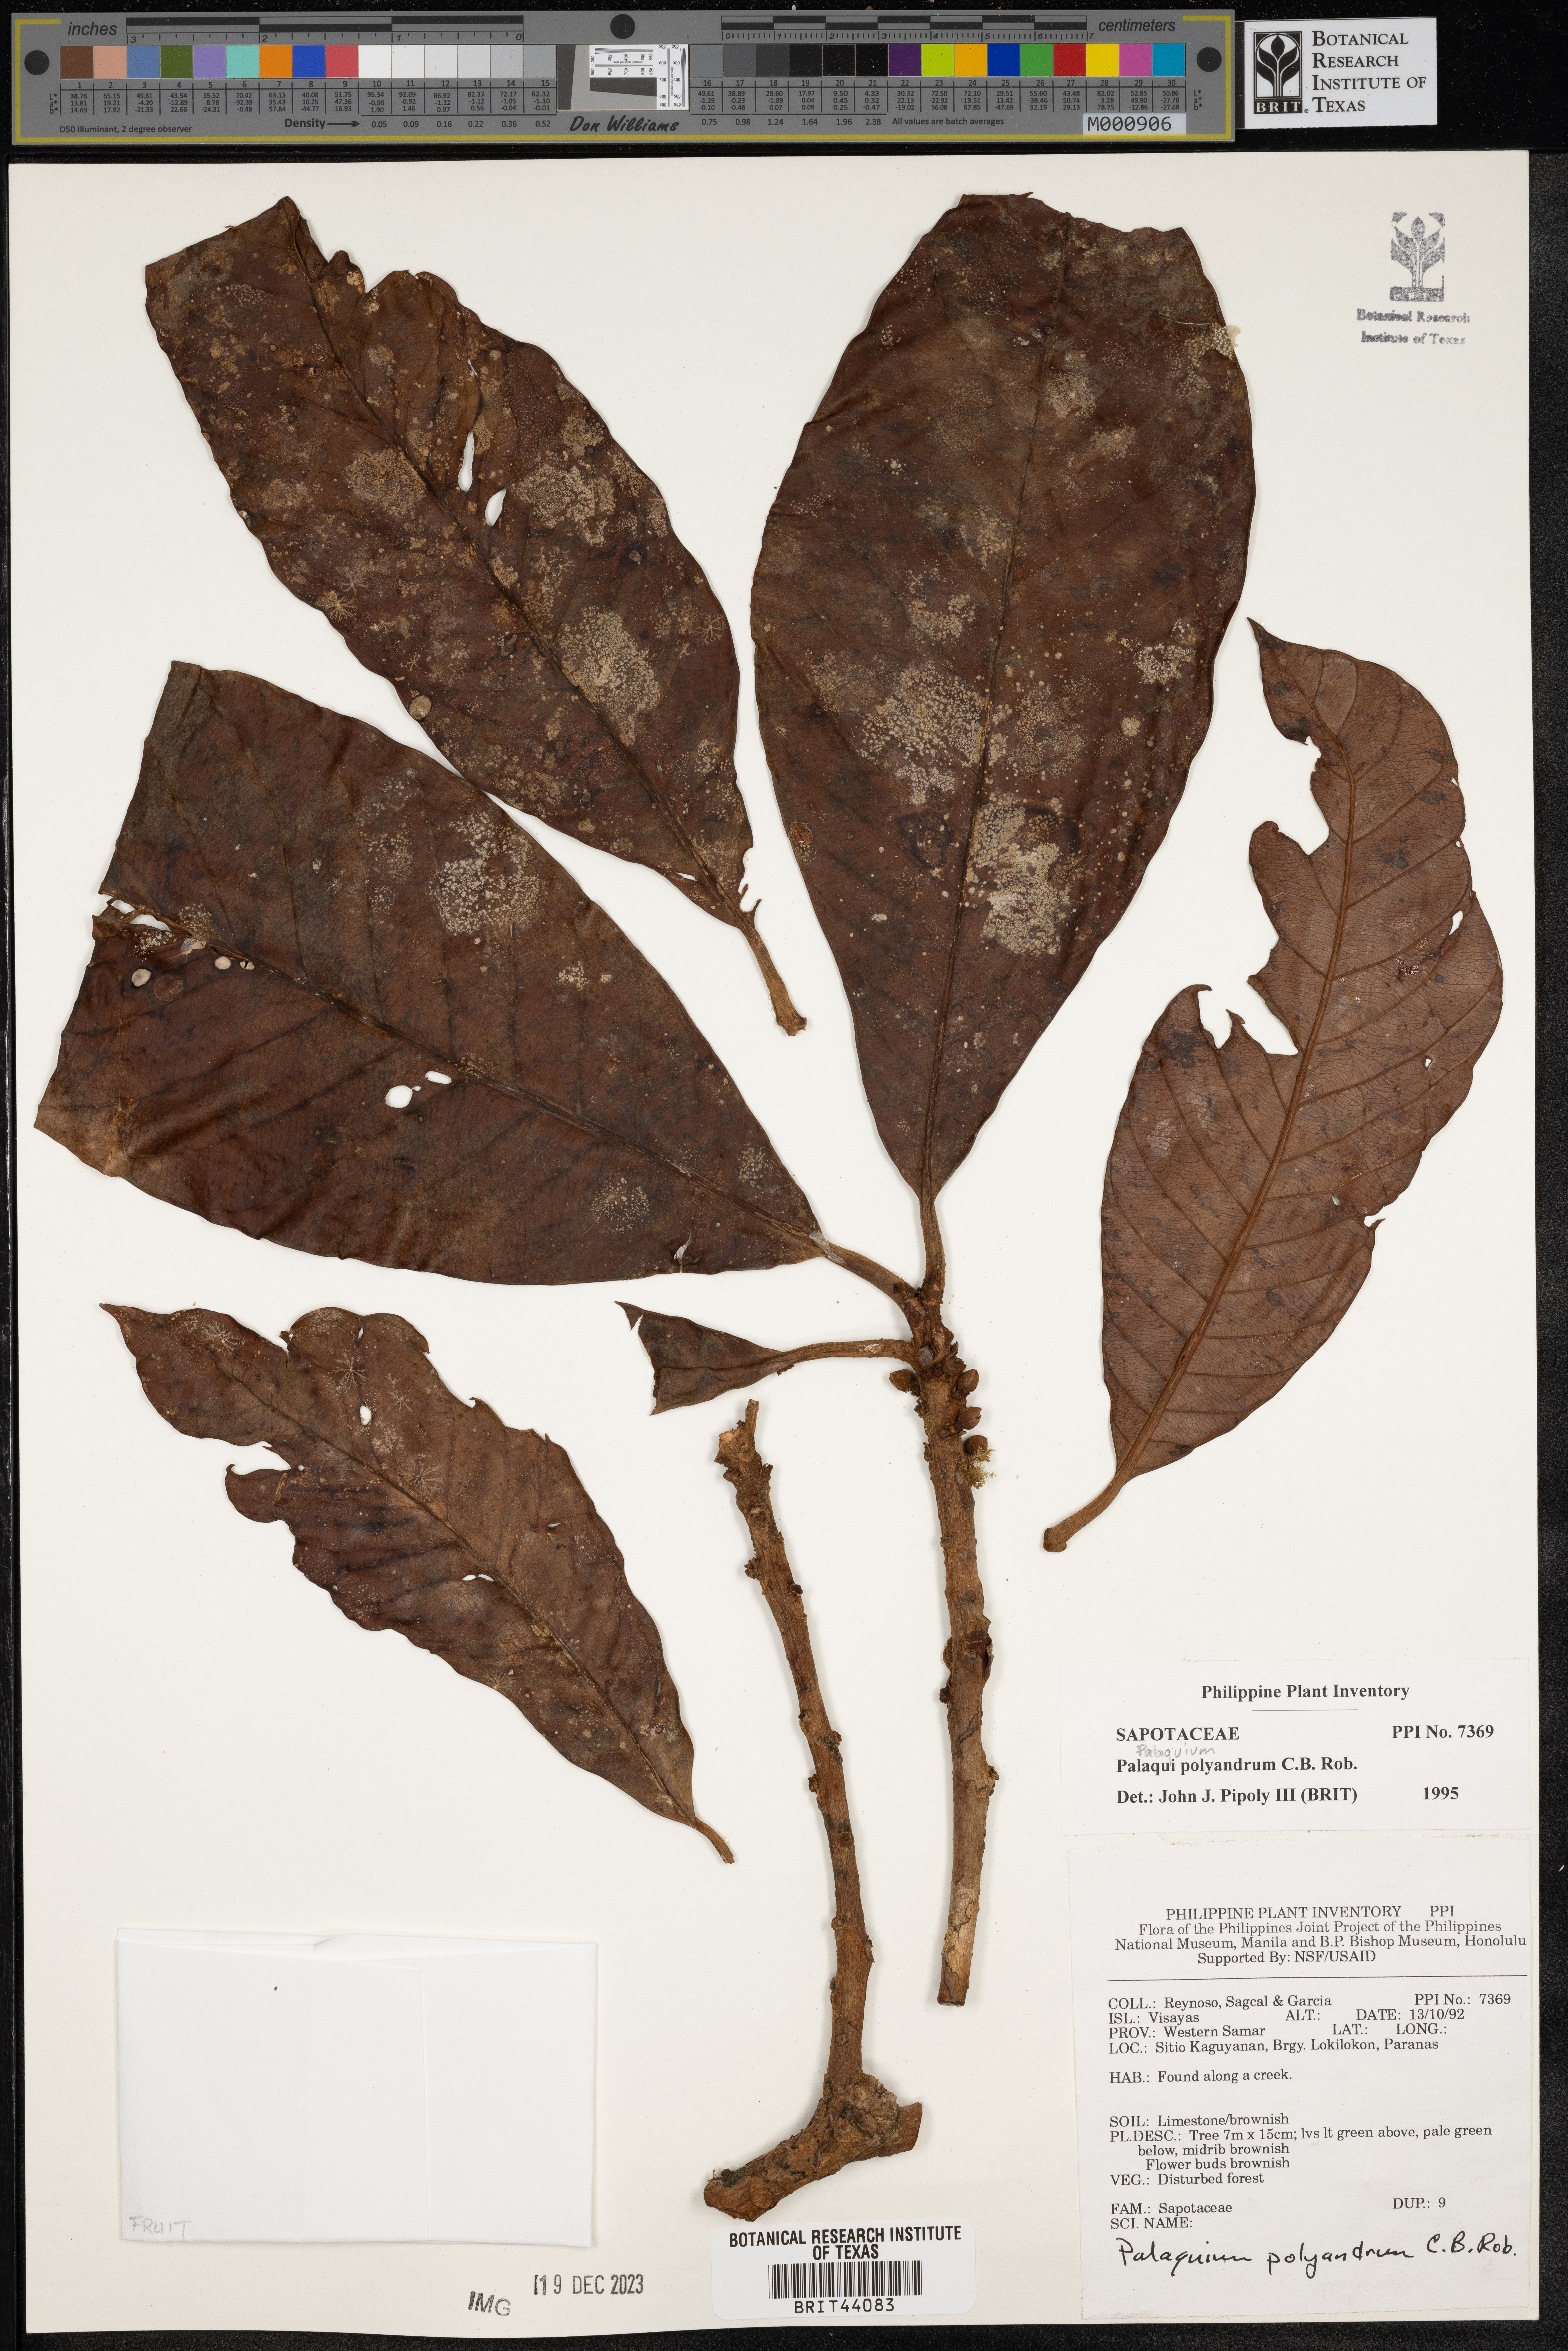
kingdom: Plantae
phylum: Tracheophyta
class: Magnoliopsida
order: Ericales
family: Sapotaceae
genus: Palaquium
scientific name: Palaquium polyandrum
